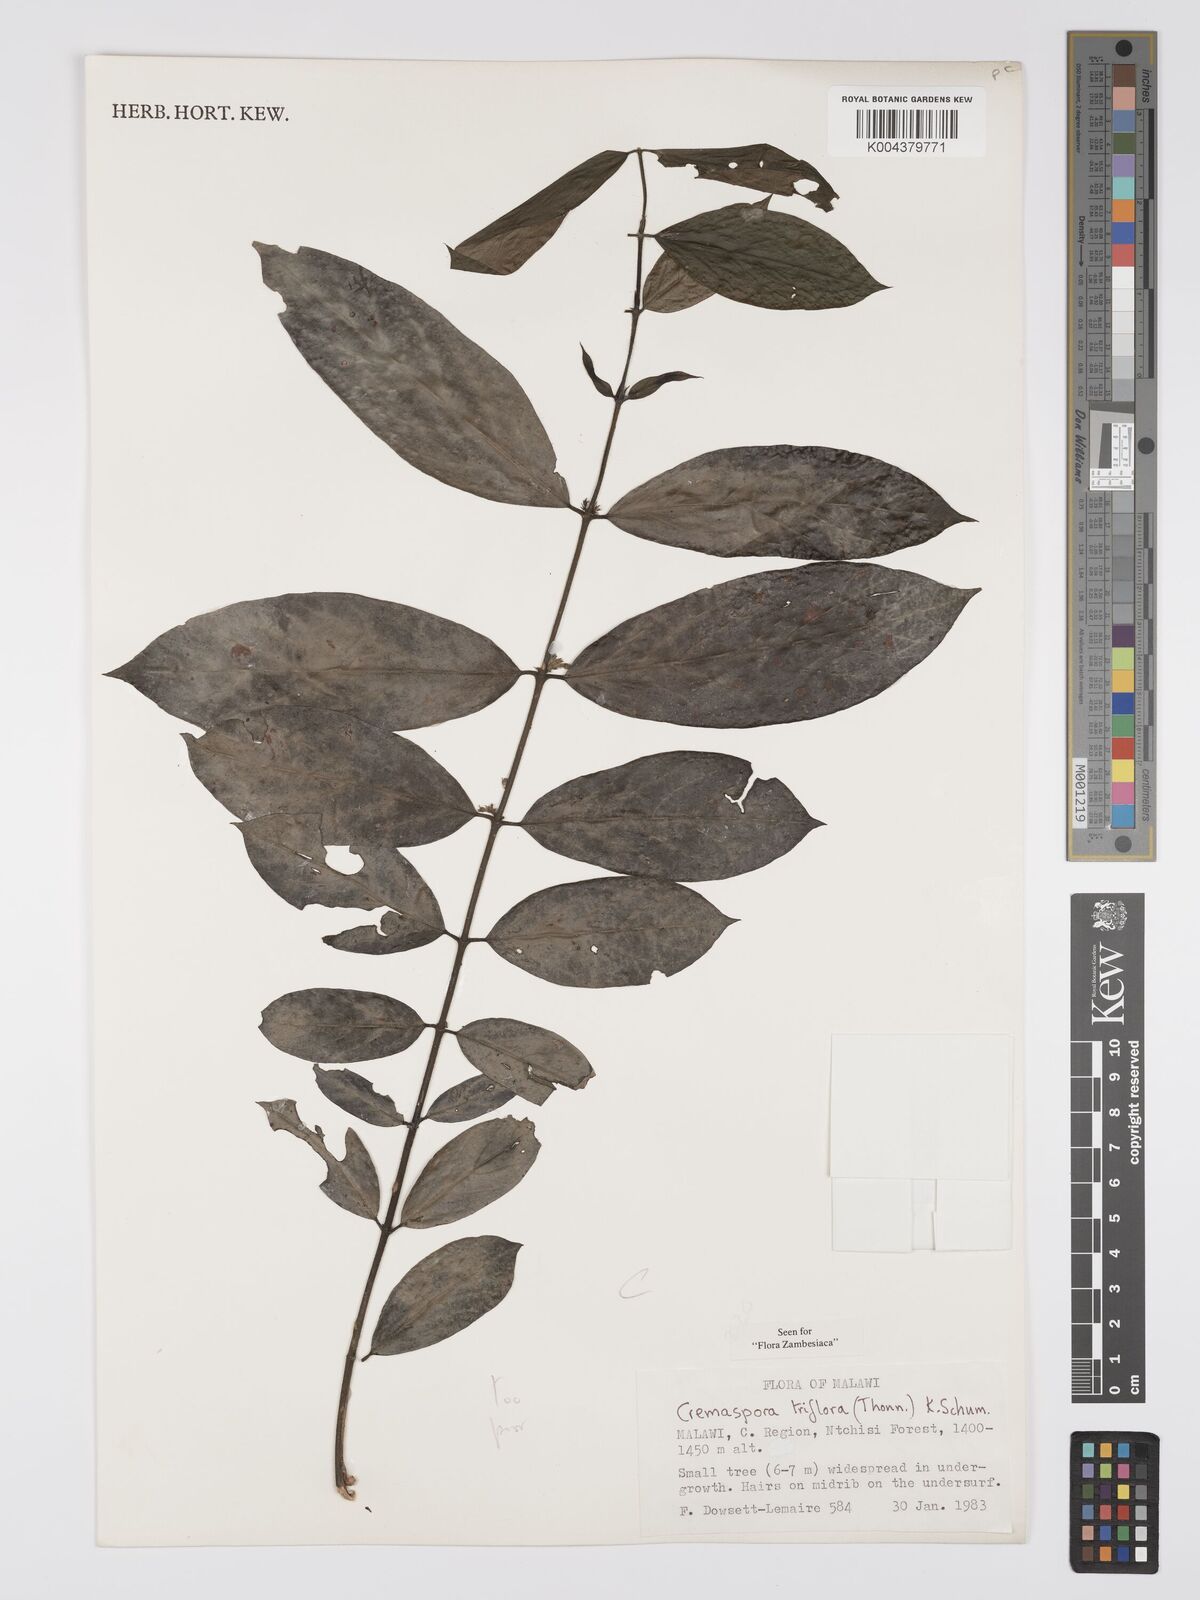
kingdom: Plantae
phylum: Tracheophyta
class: Magnoliopsida
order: Gentianales
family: Rubiaceae
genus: Cremaspora
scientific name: Cremaspora triflora
